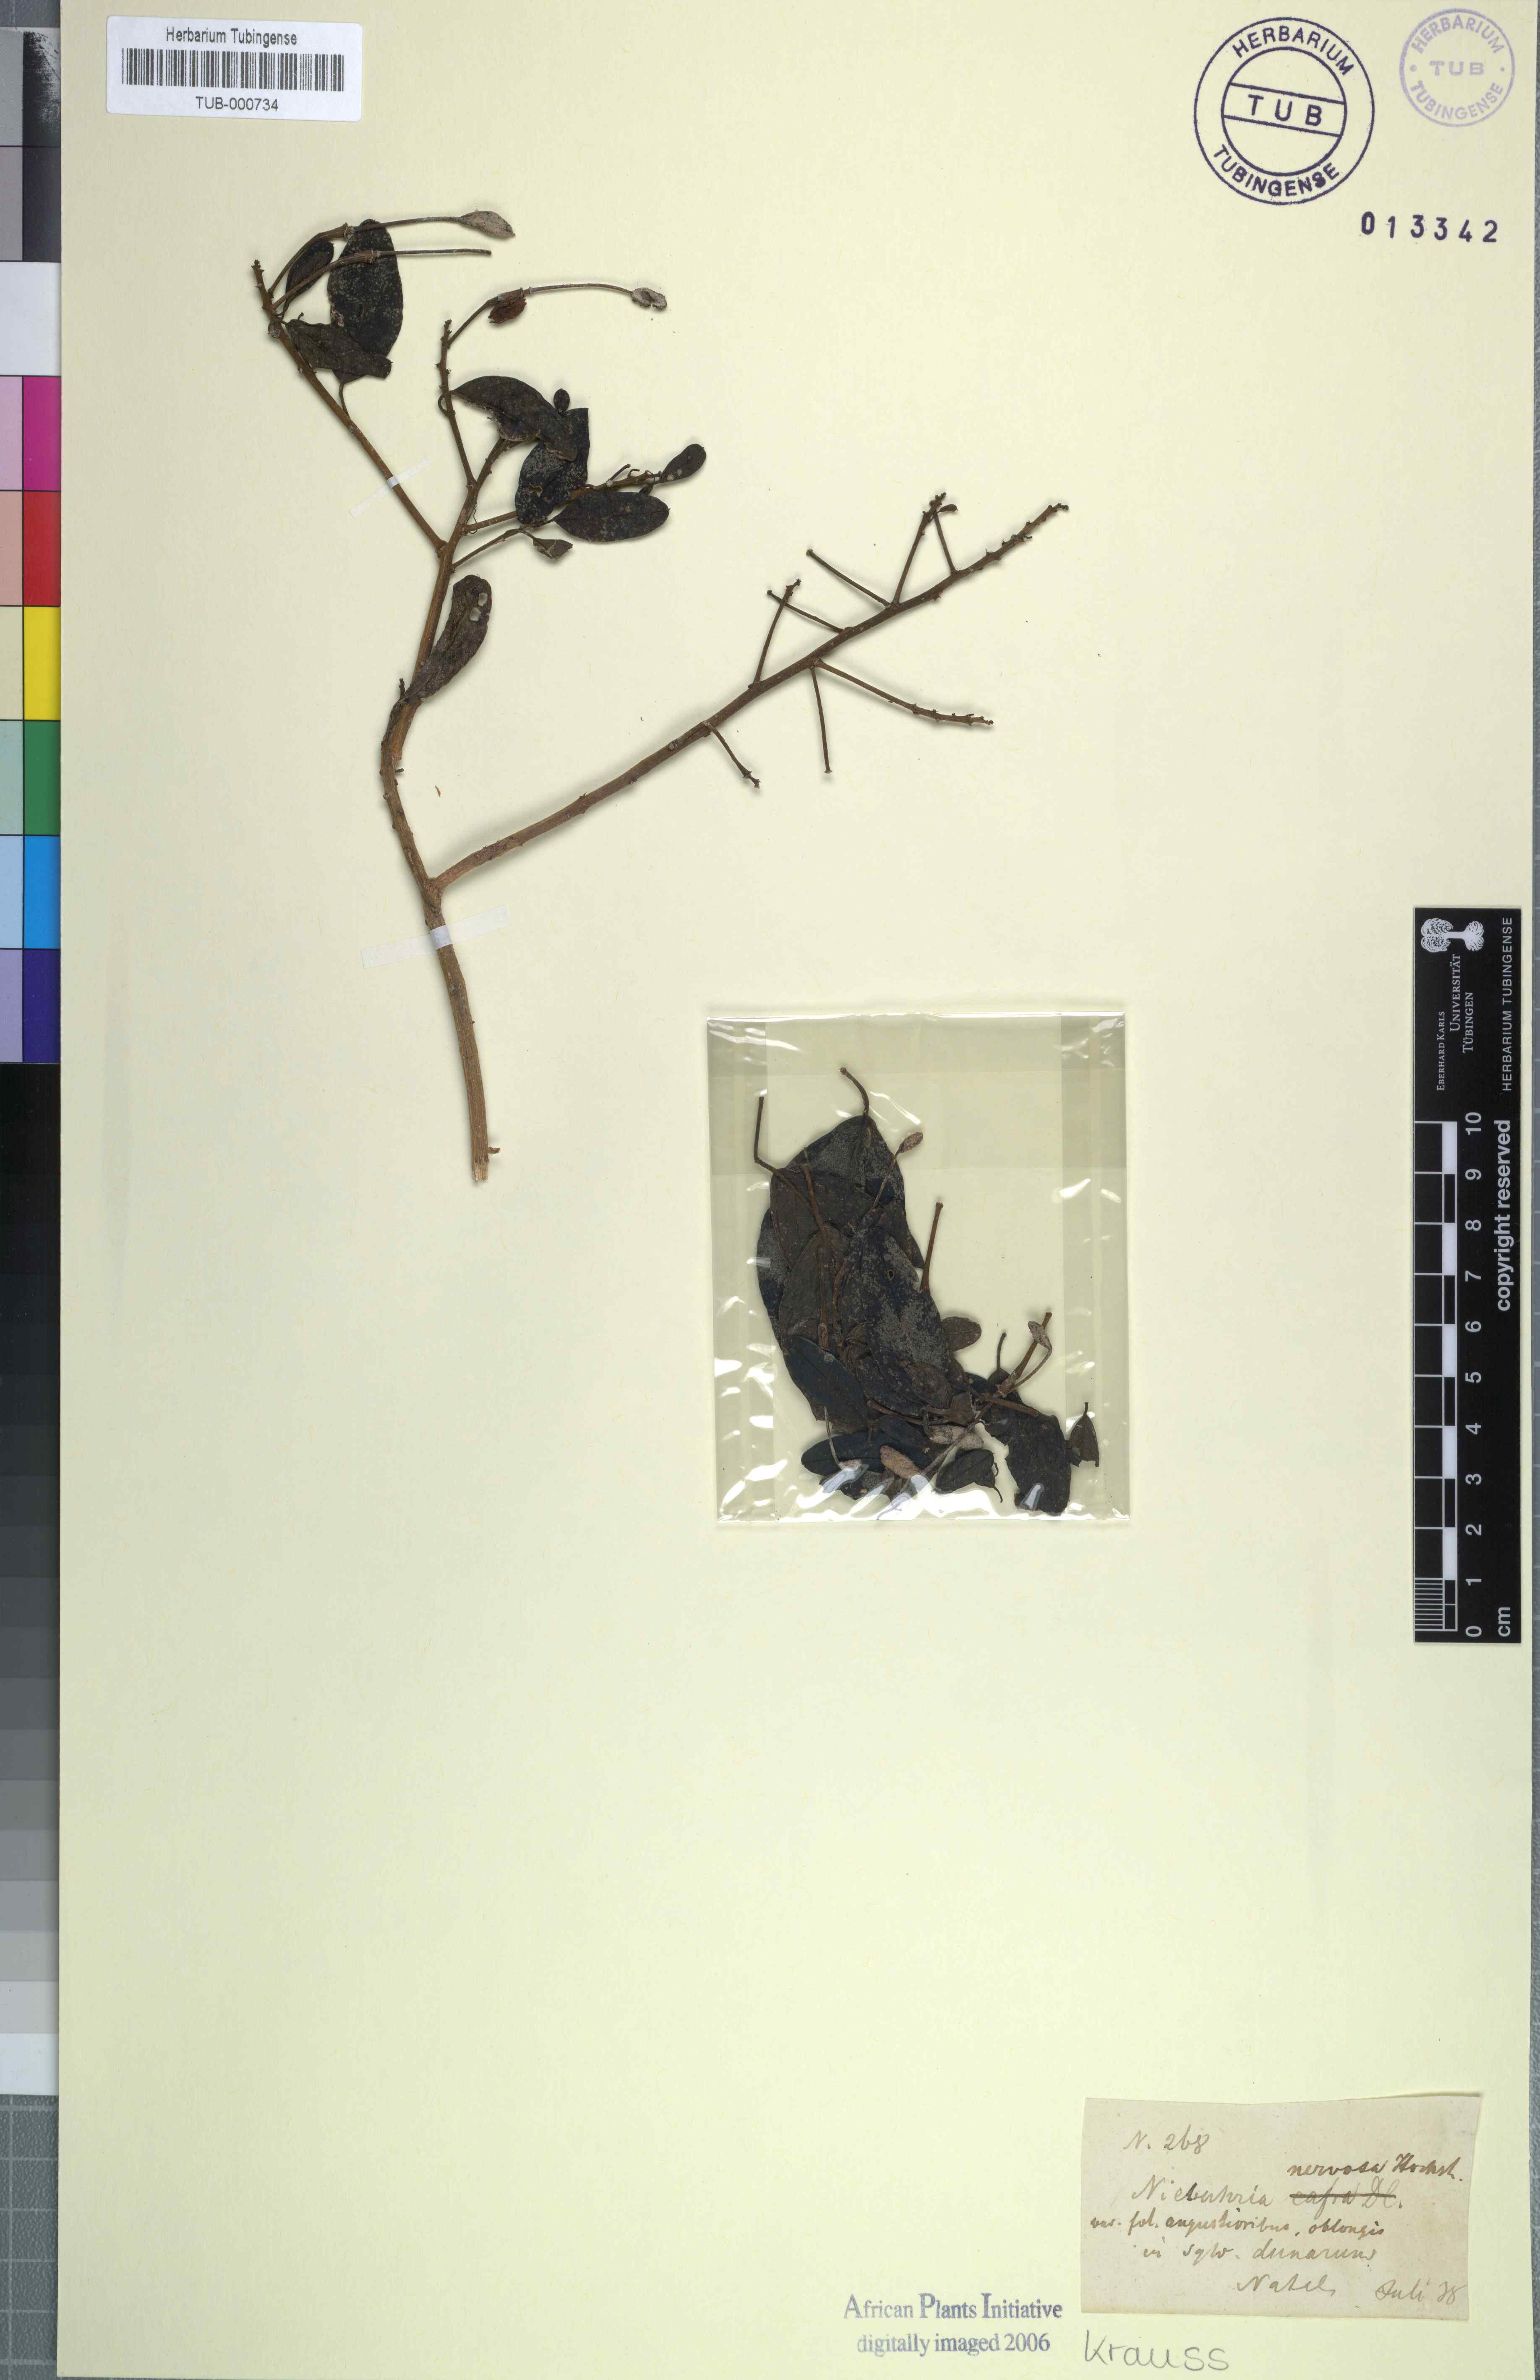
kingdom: Plantae
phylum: Tracheophyta
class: Magnoliopsida
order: Brassicales
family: Capparaceae
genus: Maerua
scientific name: Maerua nervosa
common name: Natal bush-cherry
